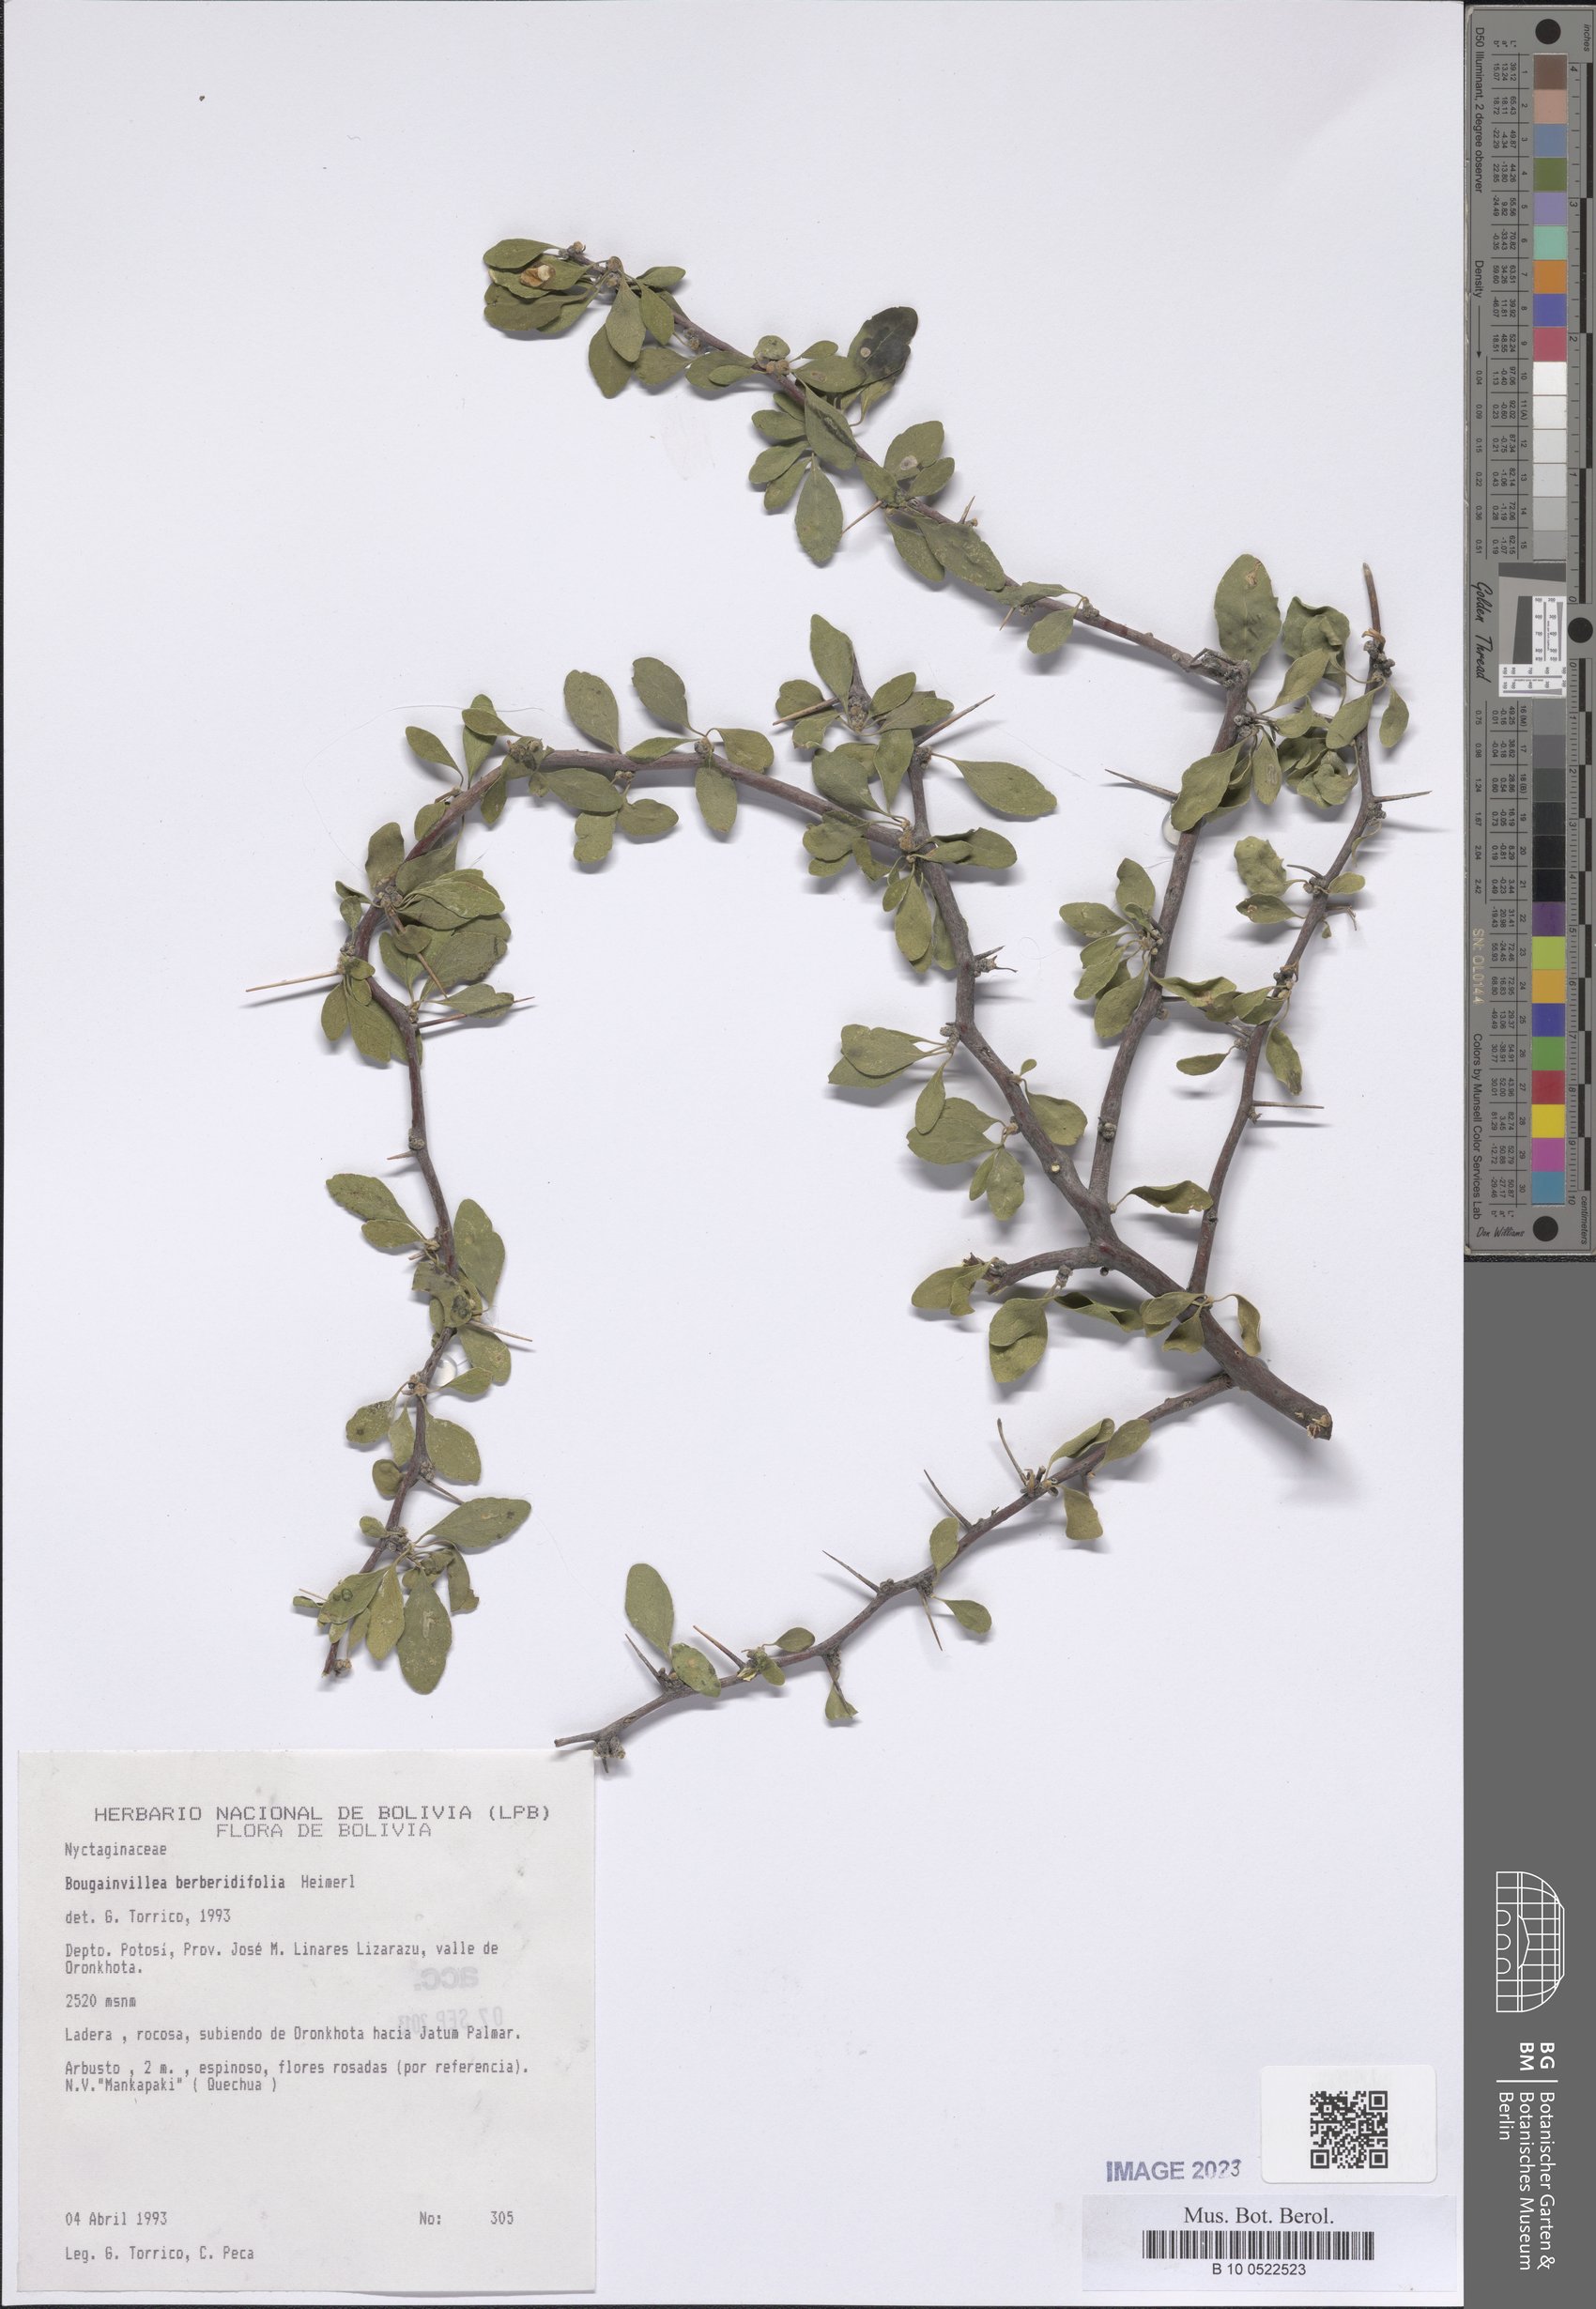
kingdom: Plantae
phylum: Tracheophyta
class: Magnoliopsida
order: Caryophyllales
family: Nyctaginaceae
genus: Bougainvillea
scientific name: Bougainvillea berberidifolia
